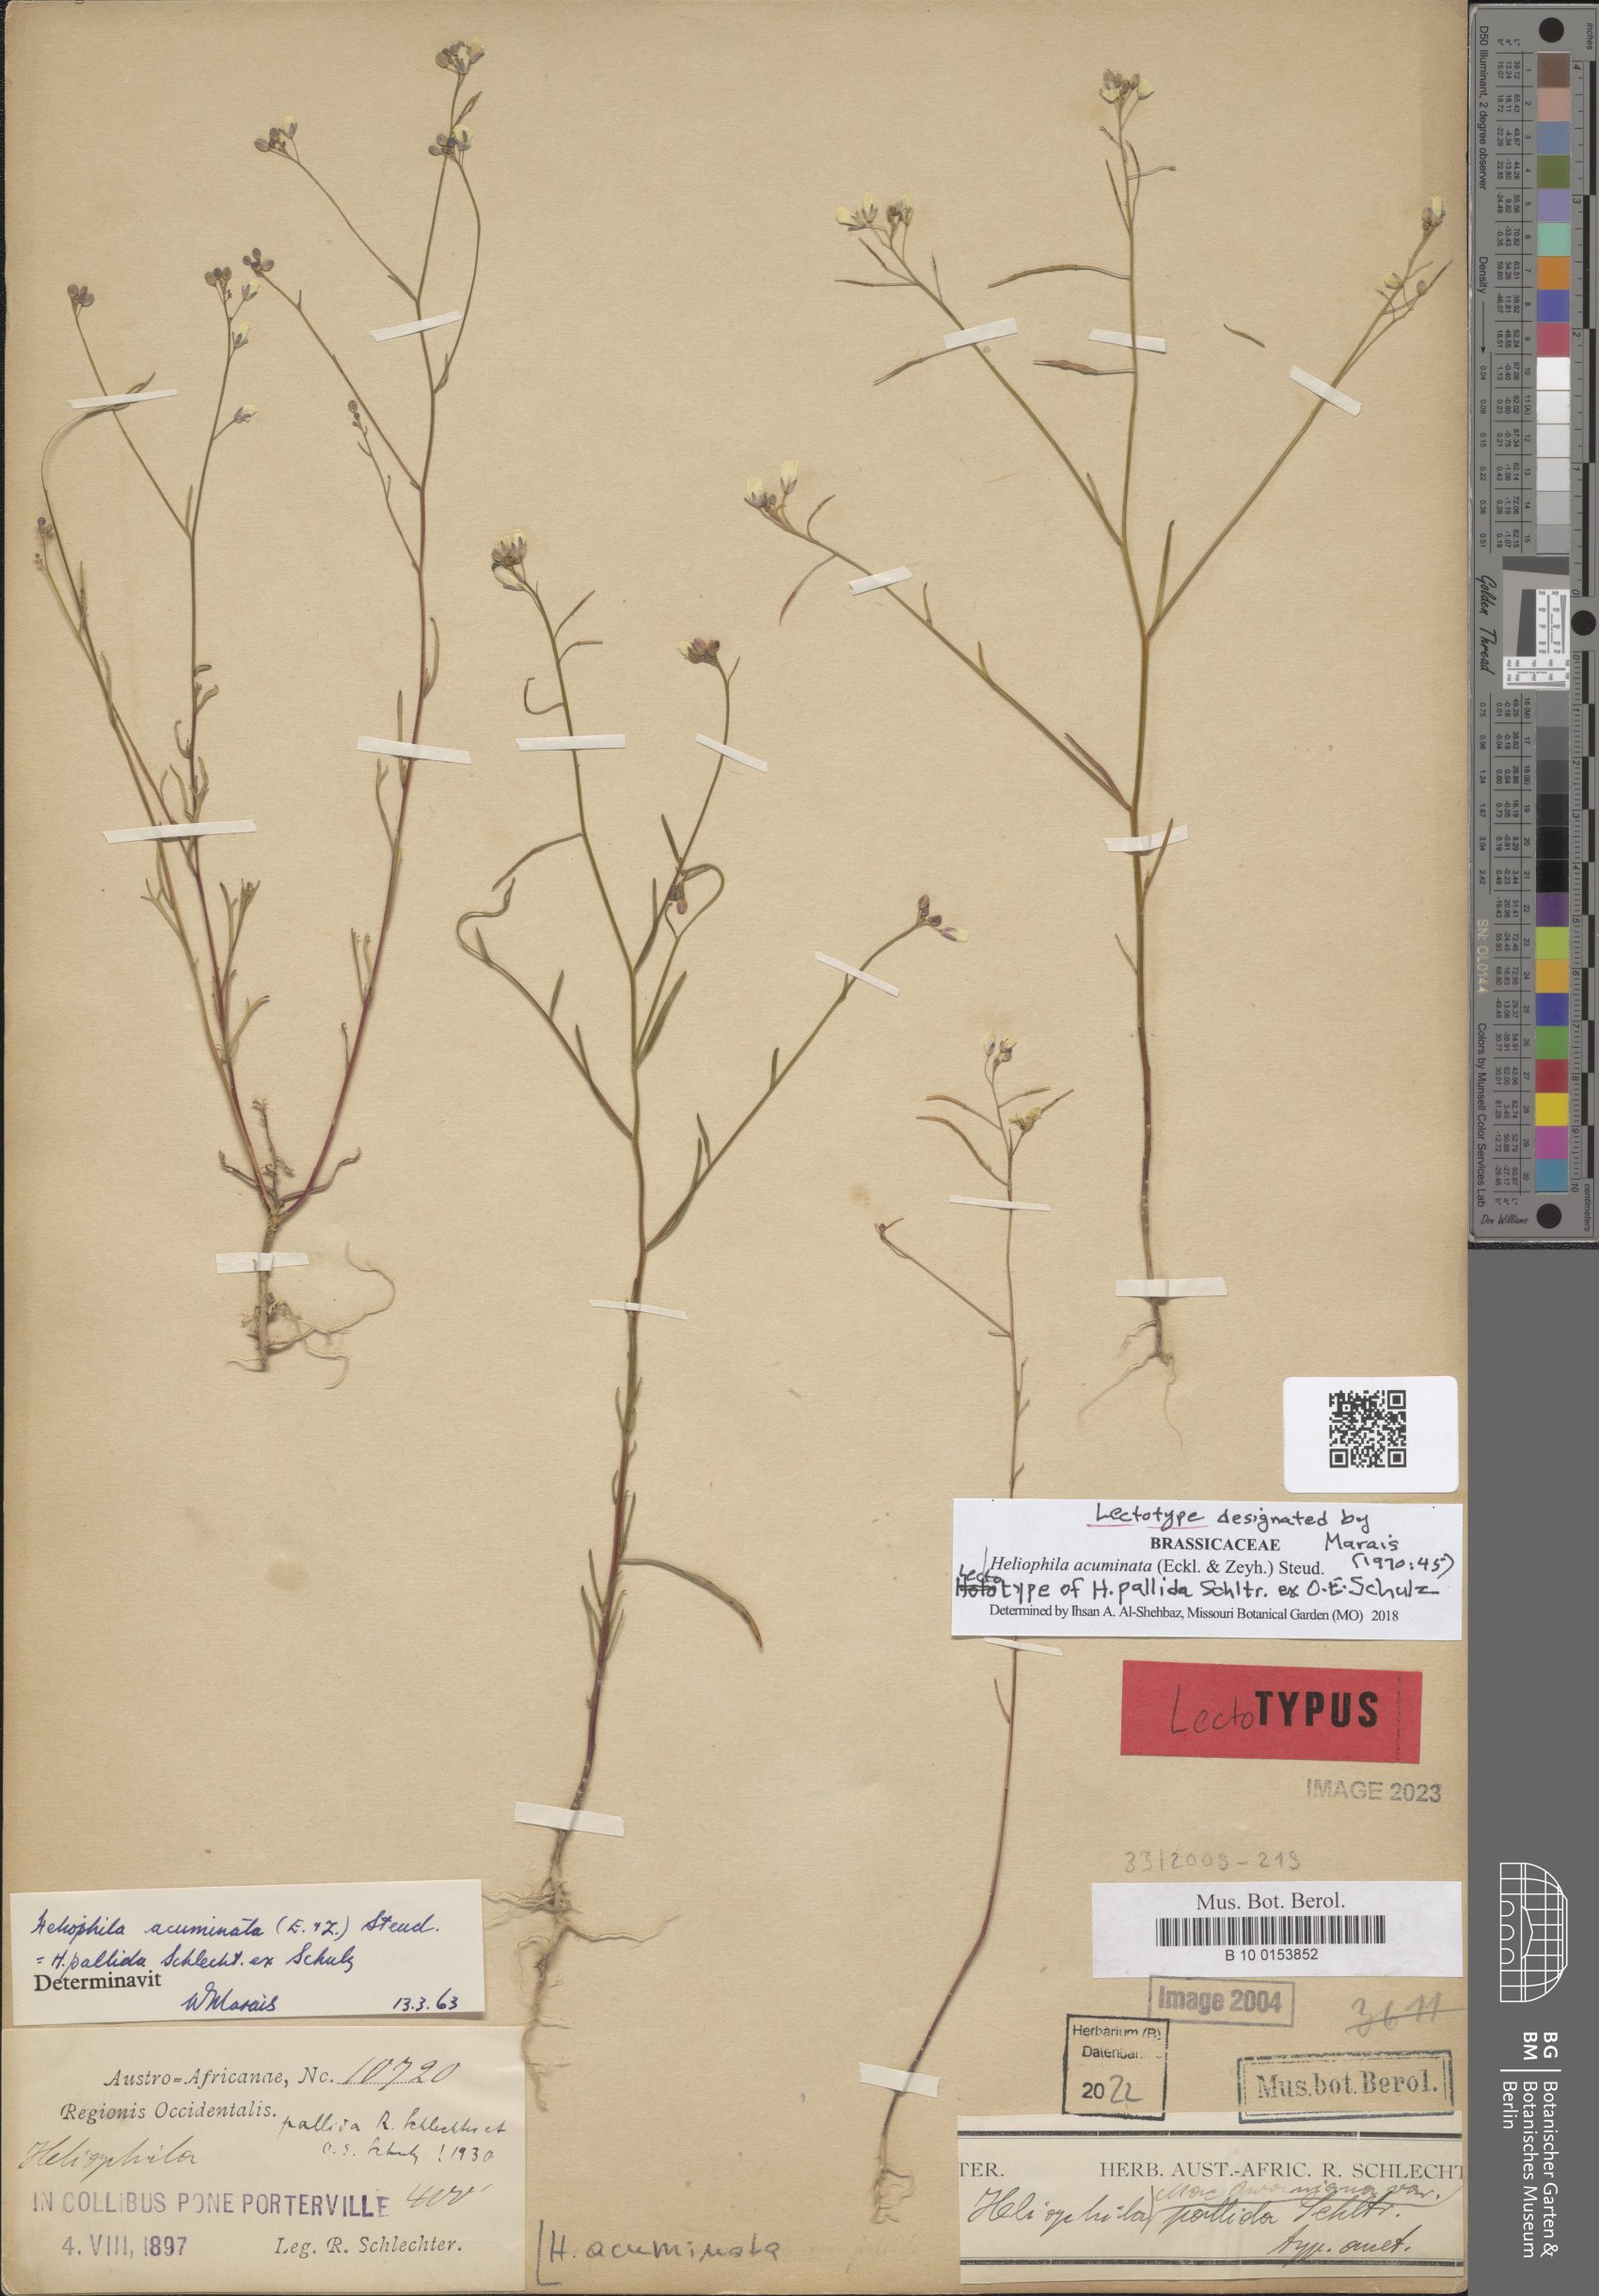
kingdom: Plantae
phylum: Tracheophyta
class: Magnoliopsida
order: Brassicales
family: Brassicaceae
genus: Heliophila
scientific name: Heliophila acuminata
